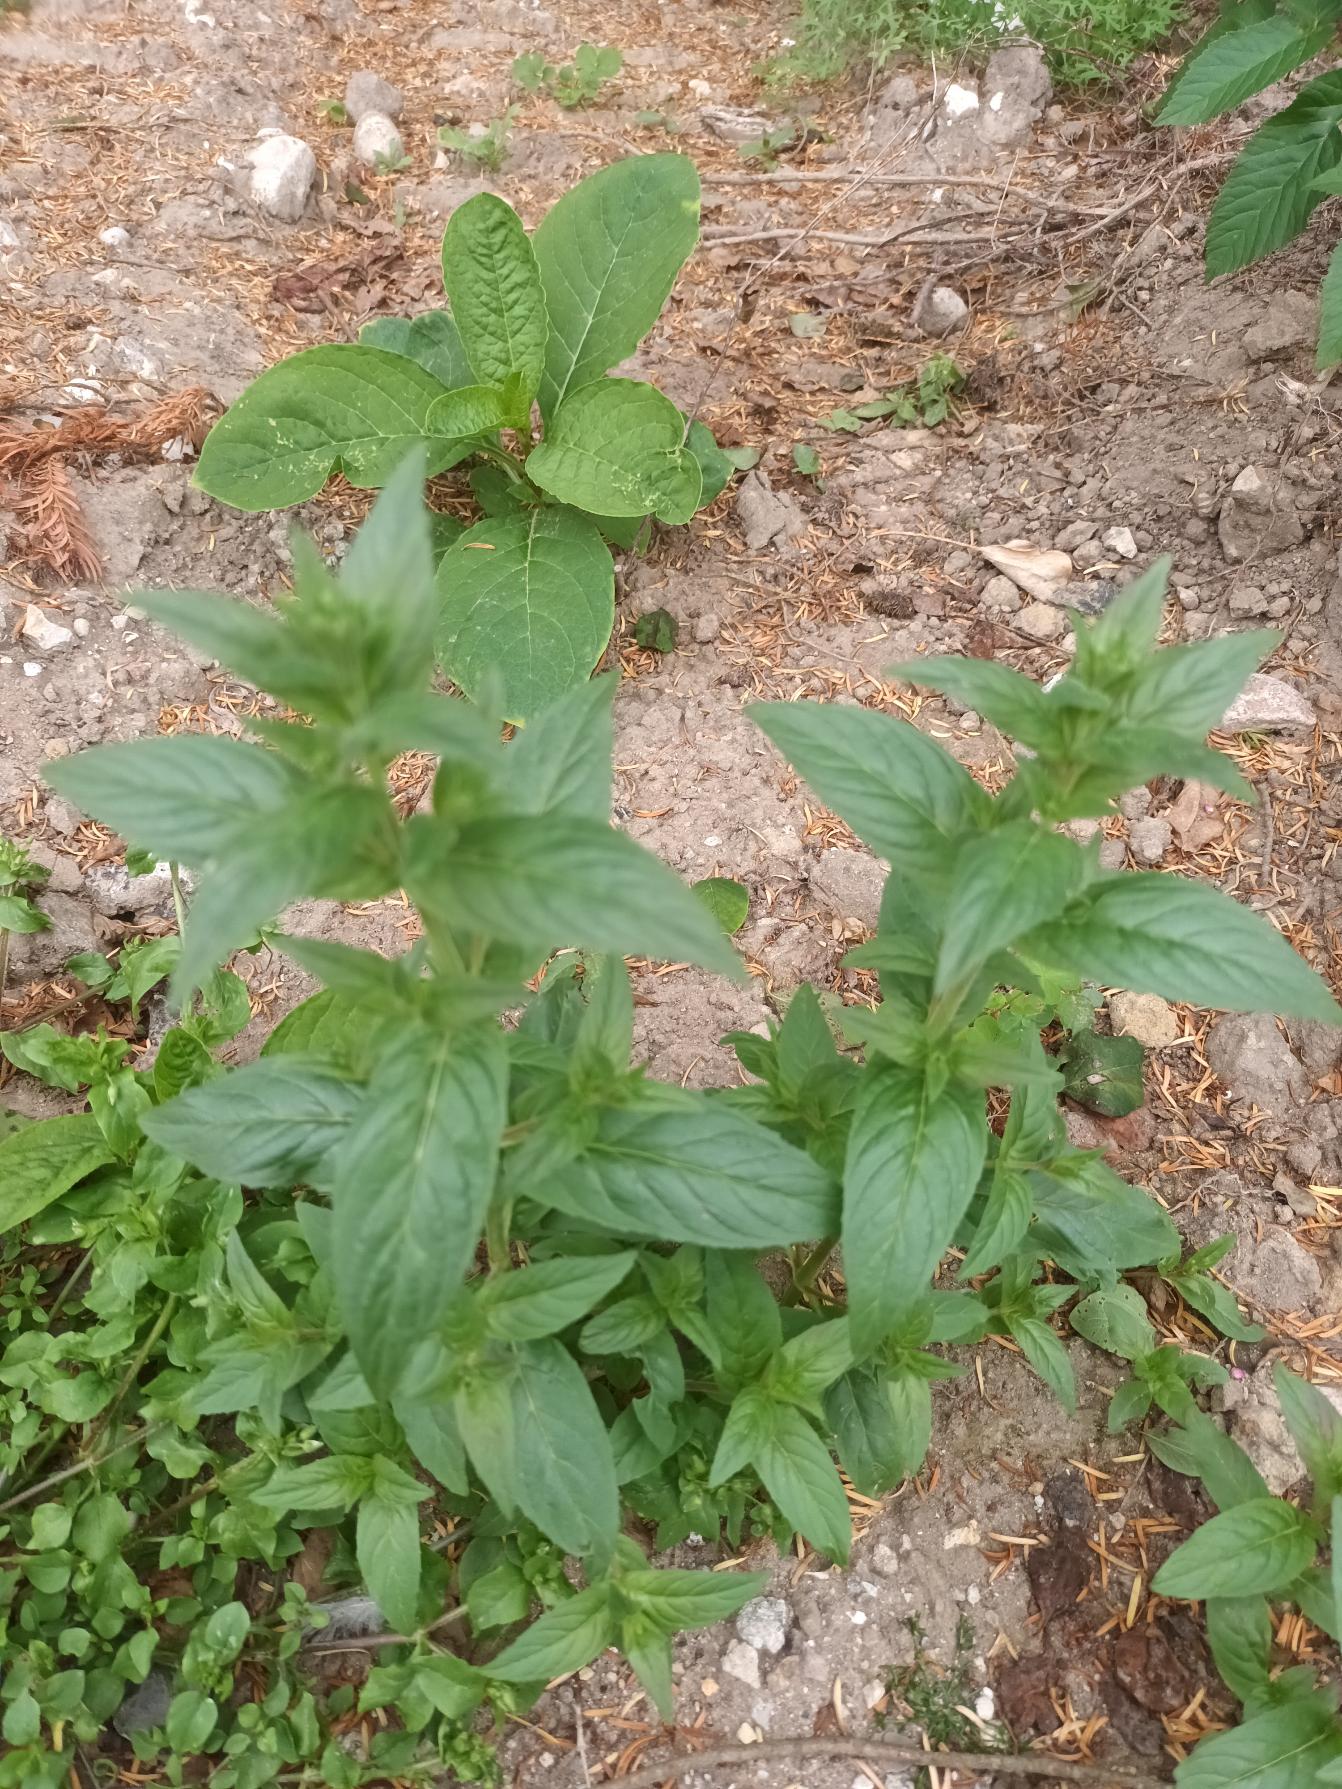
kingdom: Plantae
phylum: Tracheophyta
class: Magnoliopsida
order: Myrtales
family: Onagraceae
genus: Epilobium
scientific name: Epilobium ciliatum
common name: Alaska-dueurt
